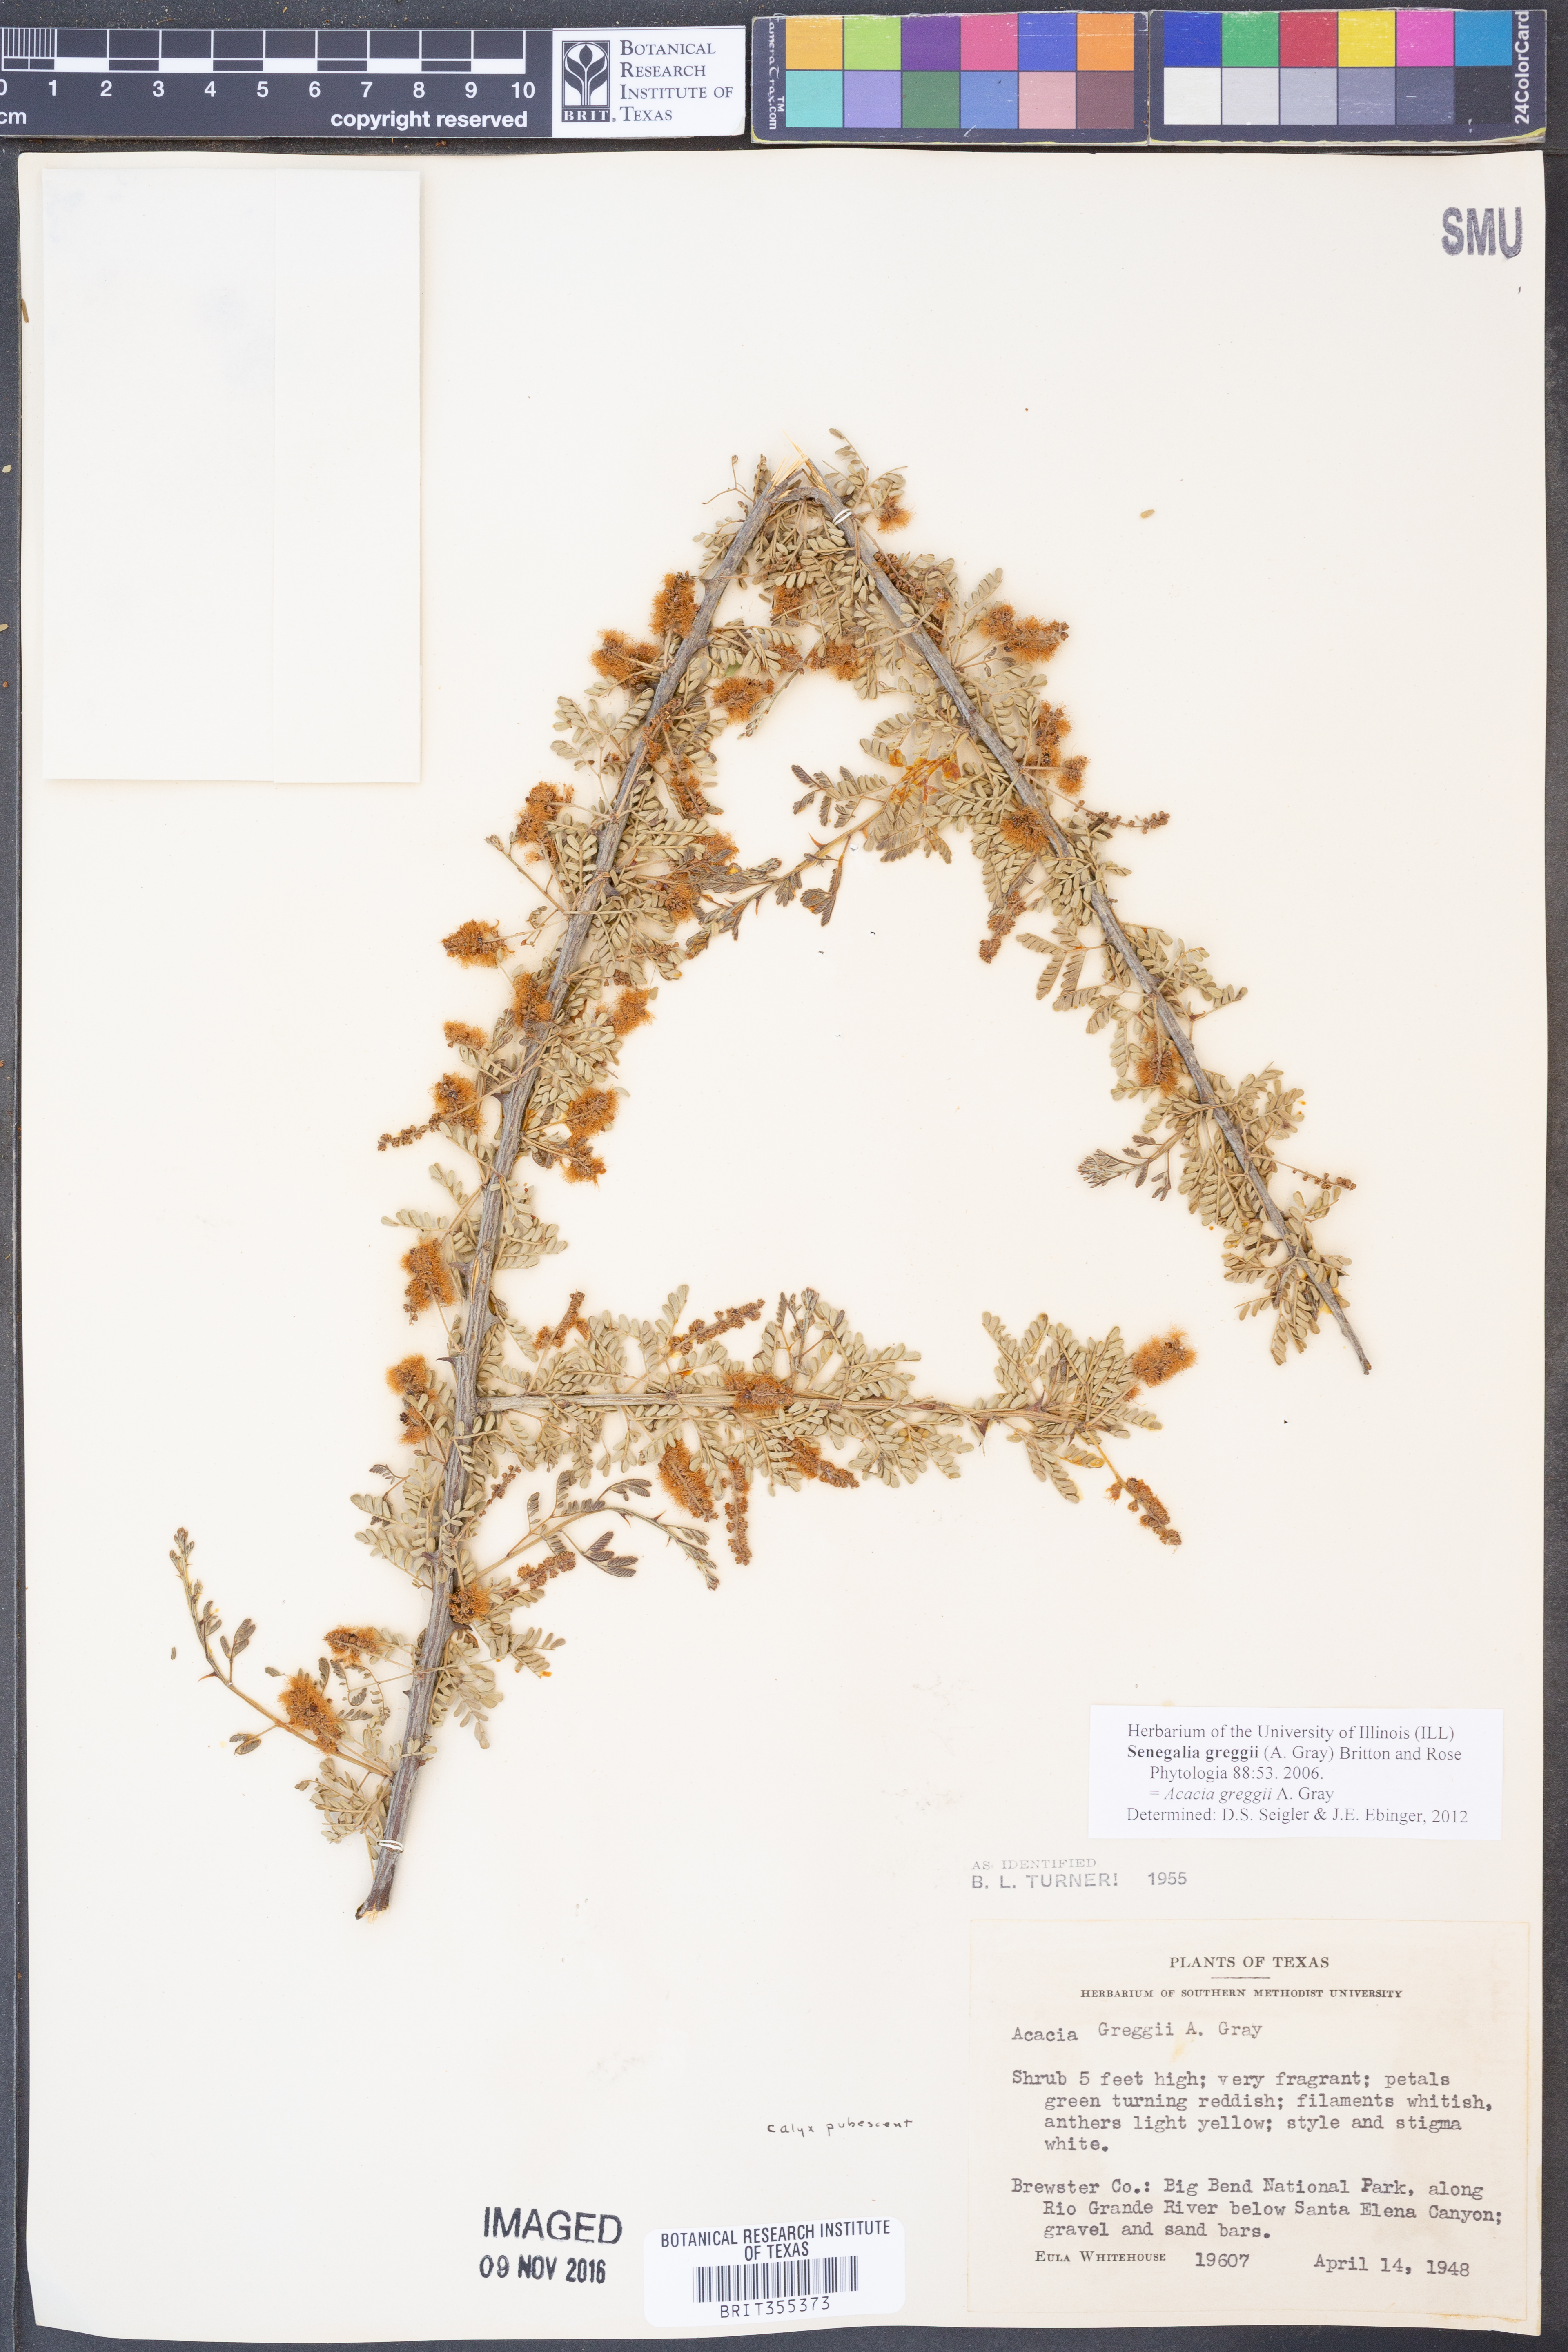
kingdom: Plantae
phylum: Tracheophyta
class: Magnoliopsida
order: Fabales
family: Fabaceae
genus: Senegalia
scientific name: Senegalia greggii
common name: Texas-mimosa
